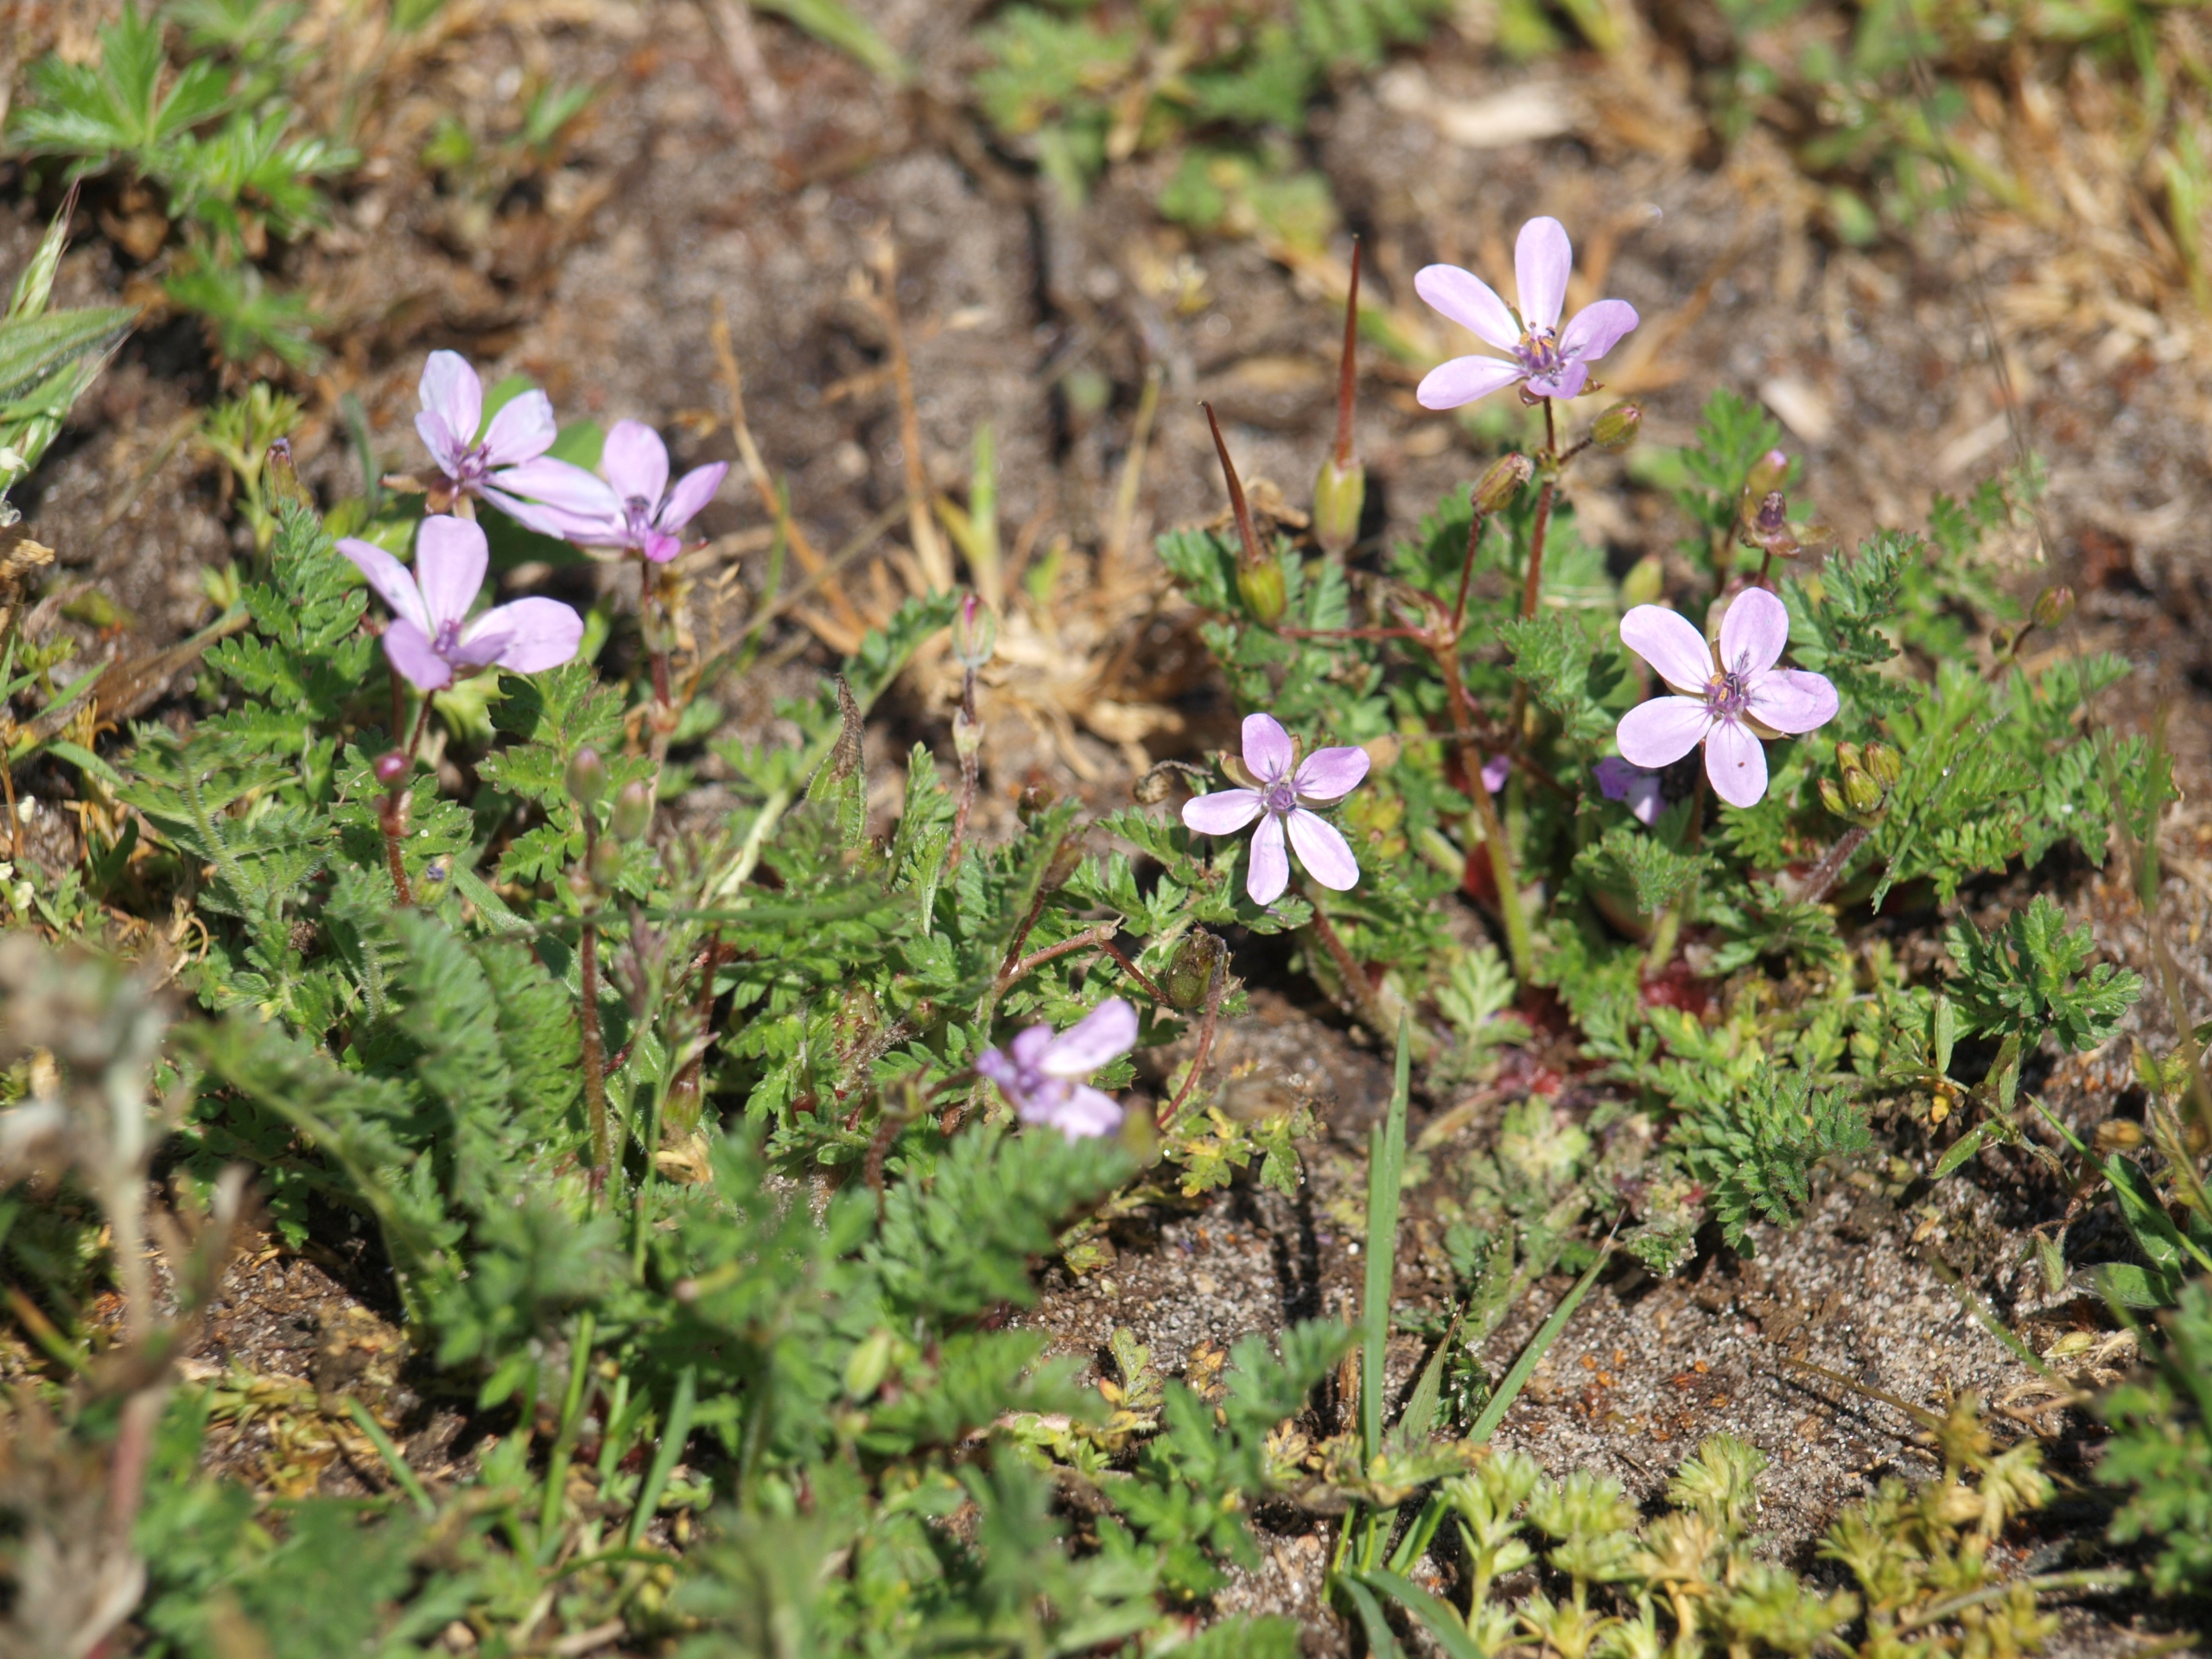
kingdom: Plantae
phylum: Tracheophyta
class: Magnoliopsida
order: Geraniales
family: Geraniaceae
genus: Erodium
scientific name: Erodium cicutarium
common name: Hejrenæb
